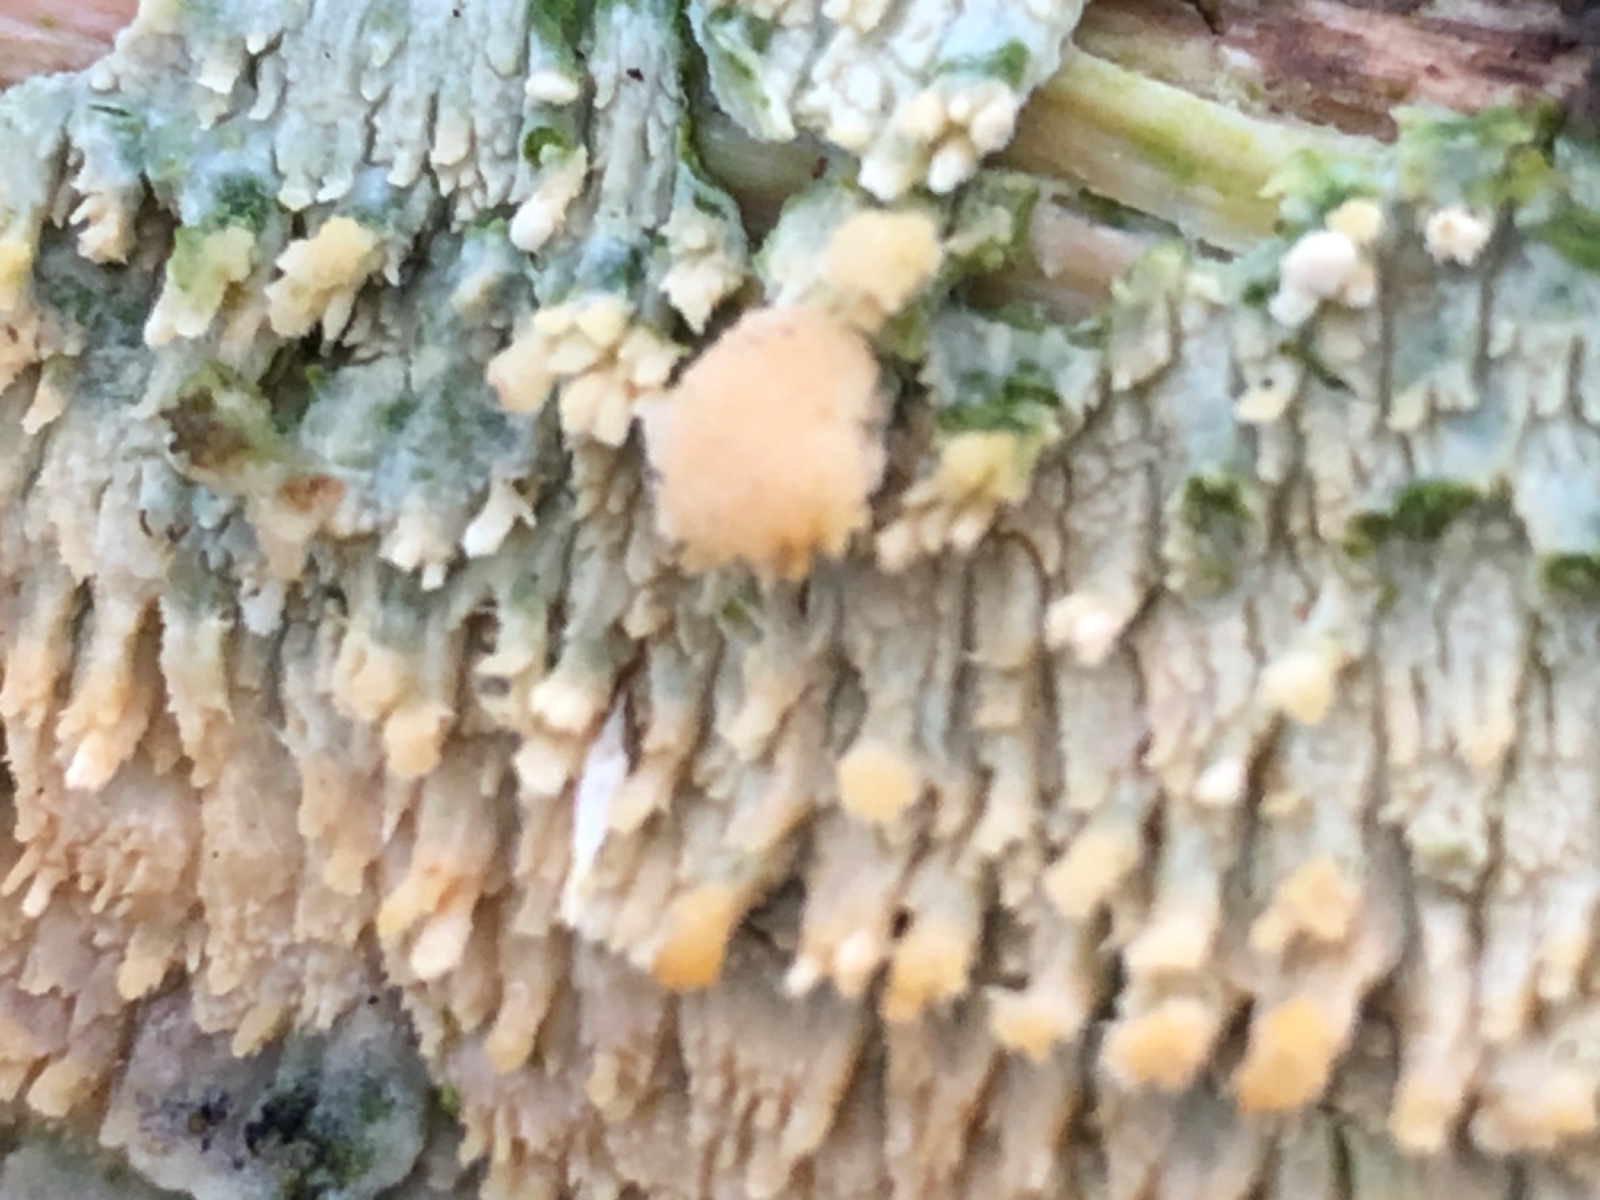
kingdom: Fungi
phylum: Basidiomycota
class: Agaricomycetes
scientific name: Agaricomycetes
